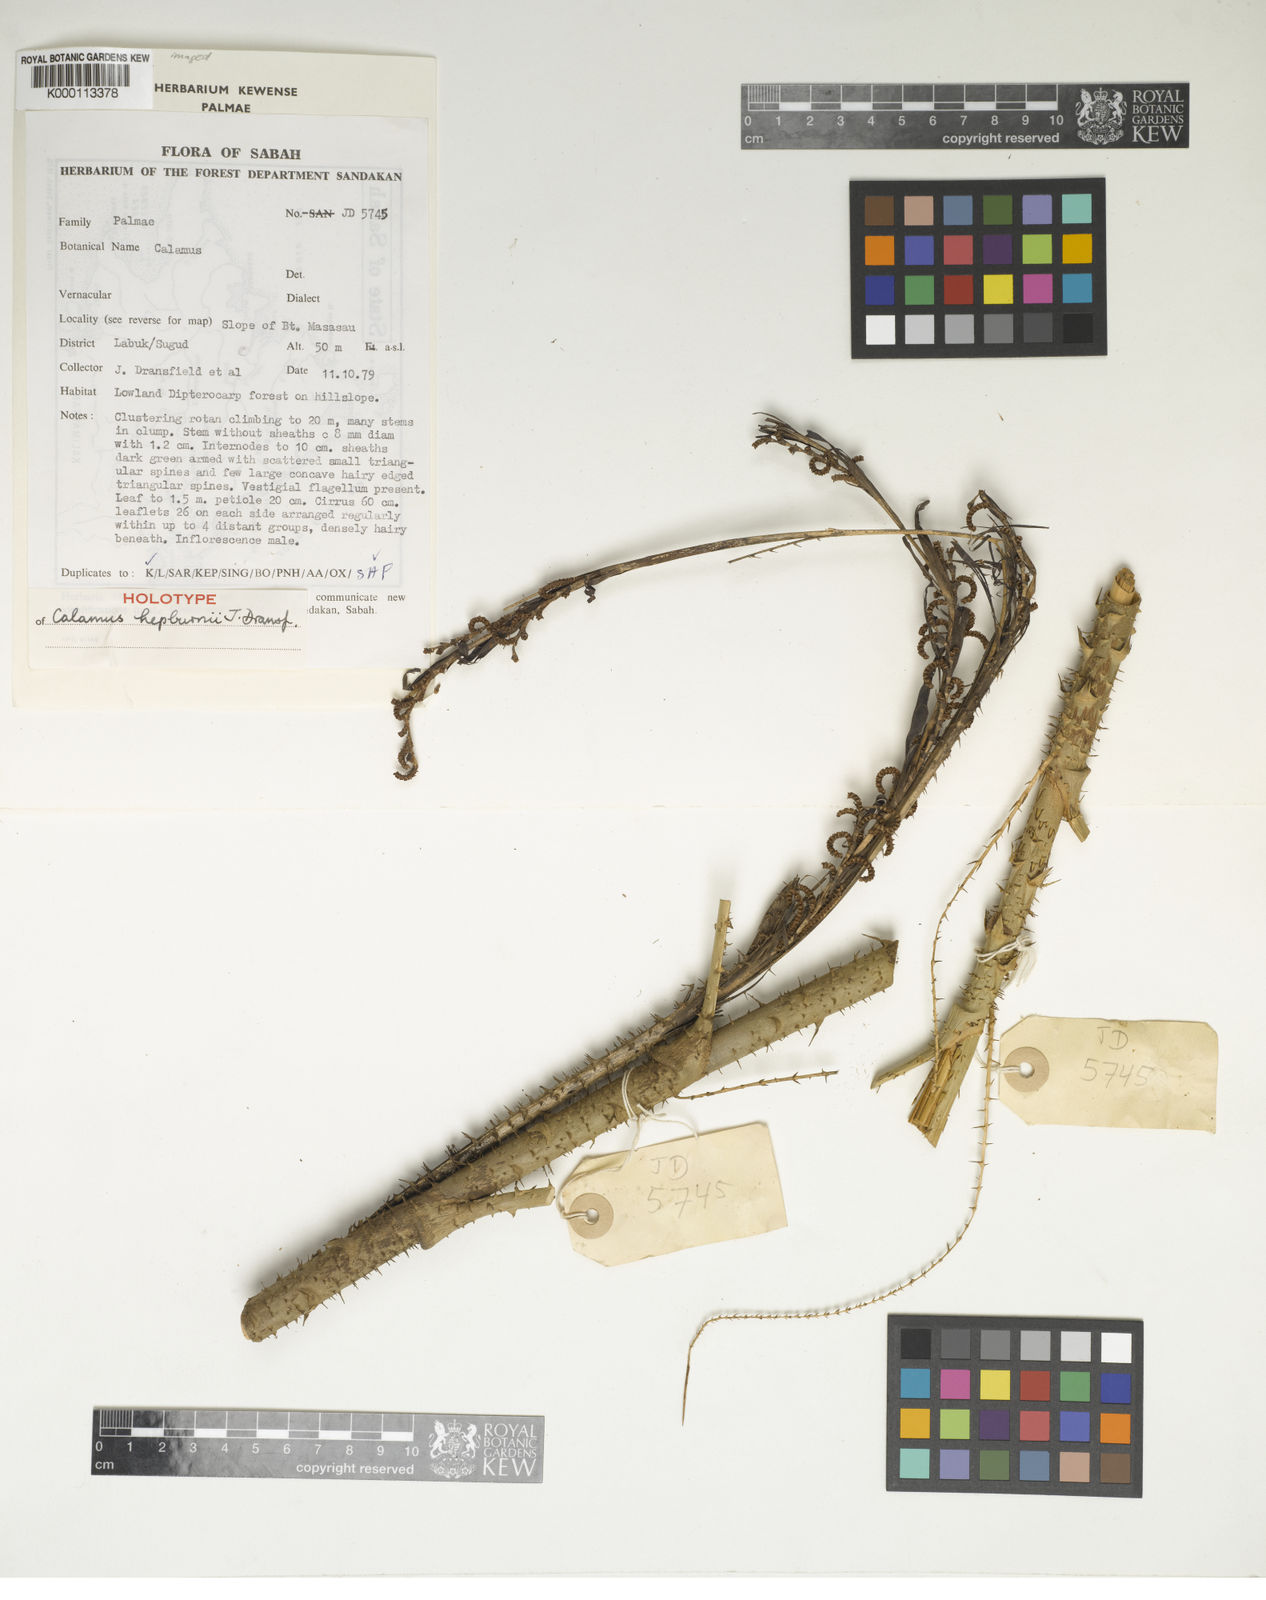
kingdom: Plantae
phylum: Tracheophyta
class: Liliopsida
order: Arecales
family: Arecaceae
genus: Calamus
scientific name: Calamus erioacanthus
